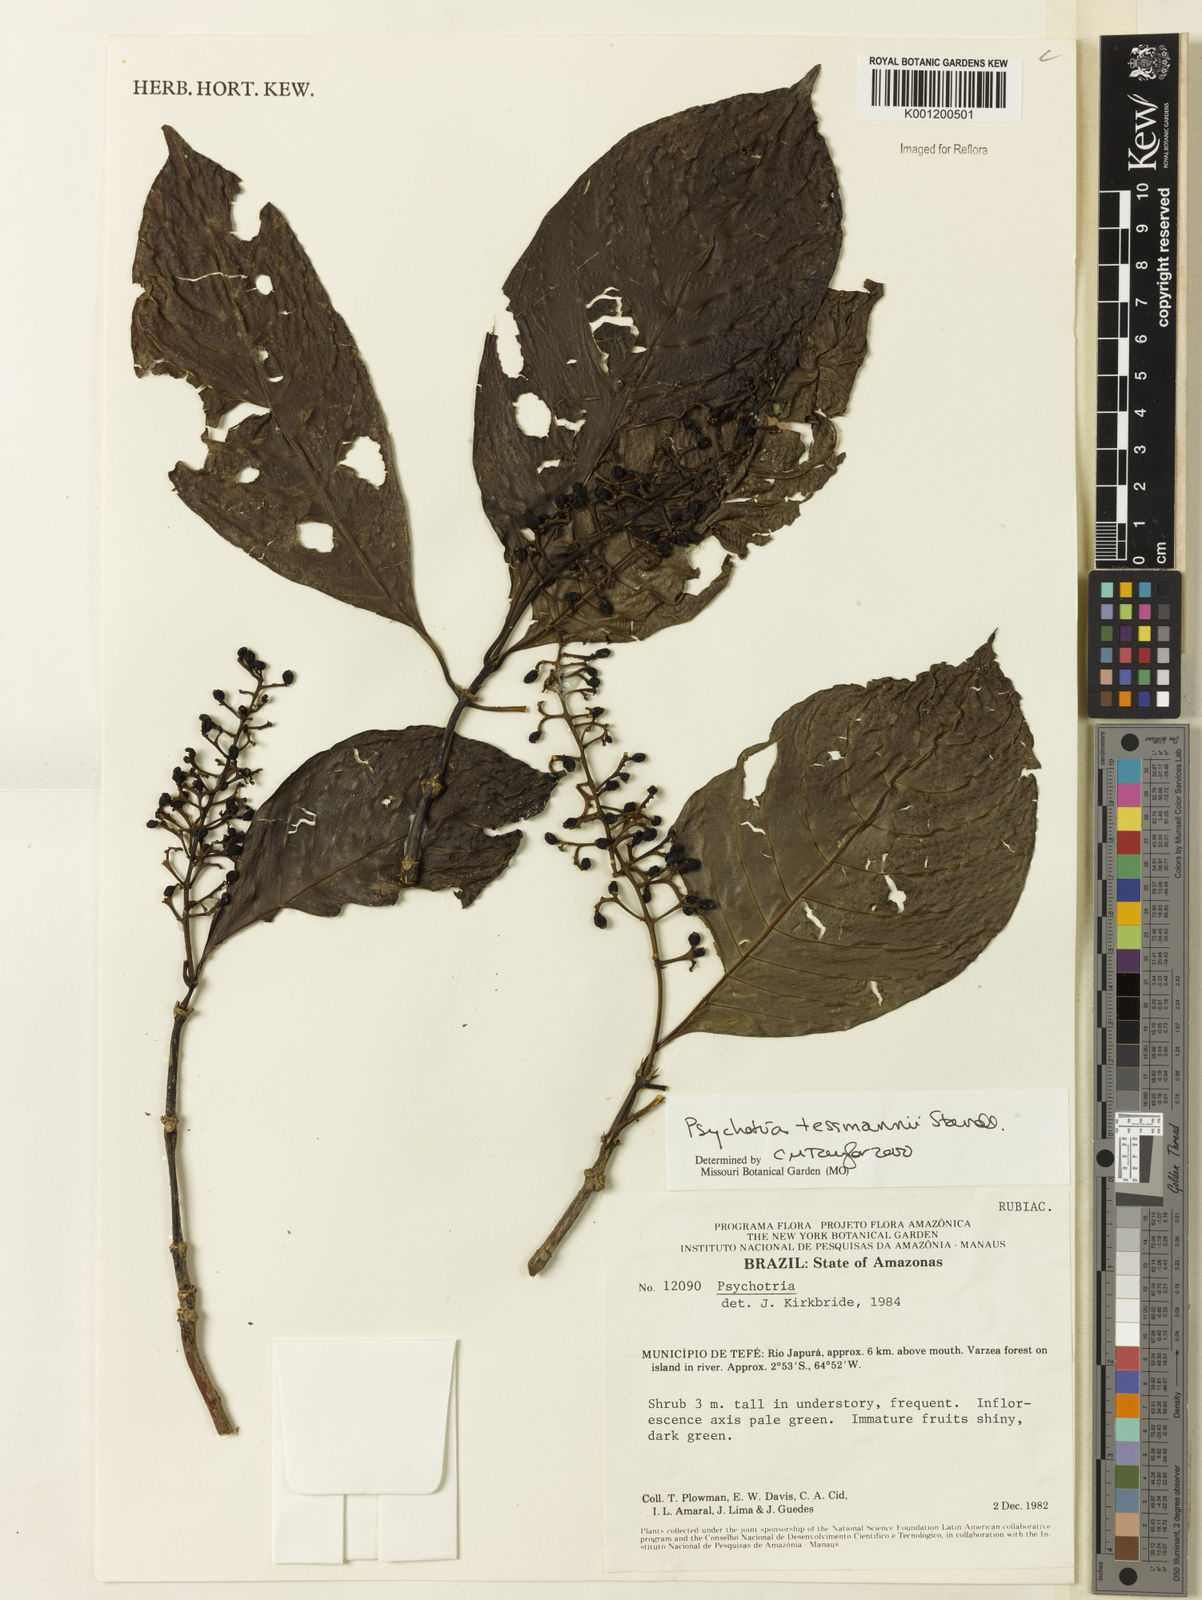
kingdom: Plantae
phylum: Tracheophyta
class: Magnoliopsida
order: Gentianales
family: Rubiaceae
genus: Palicourea
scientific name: Palicourea subfusca
